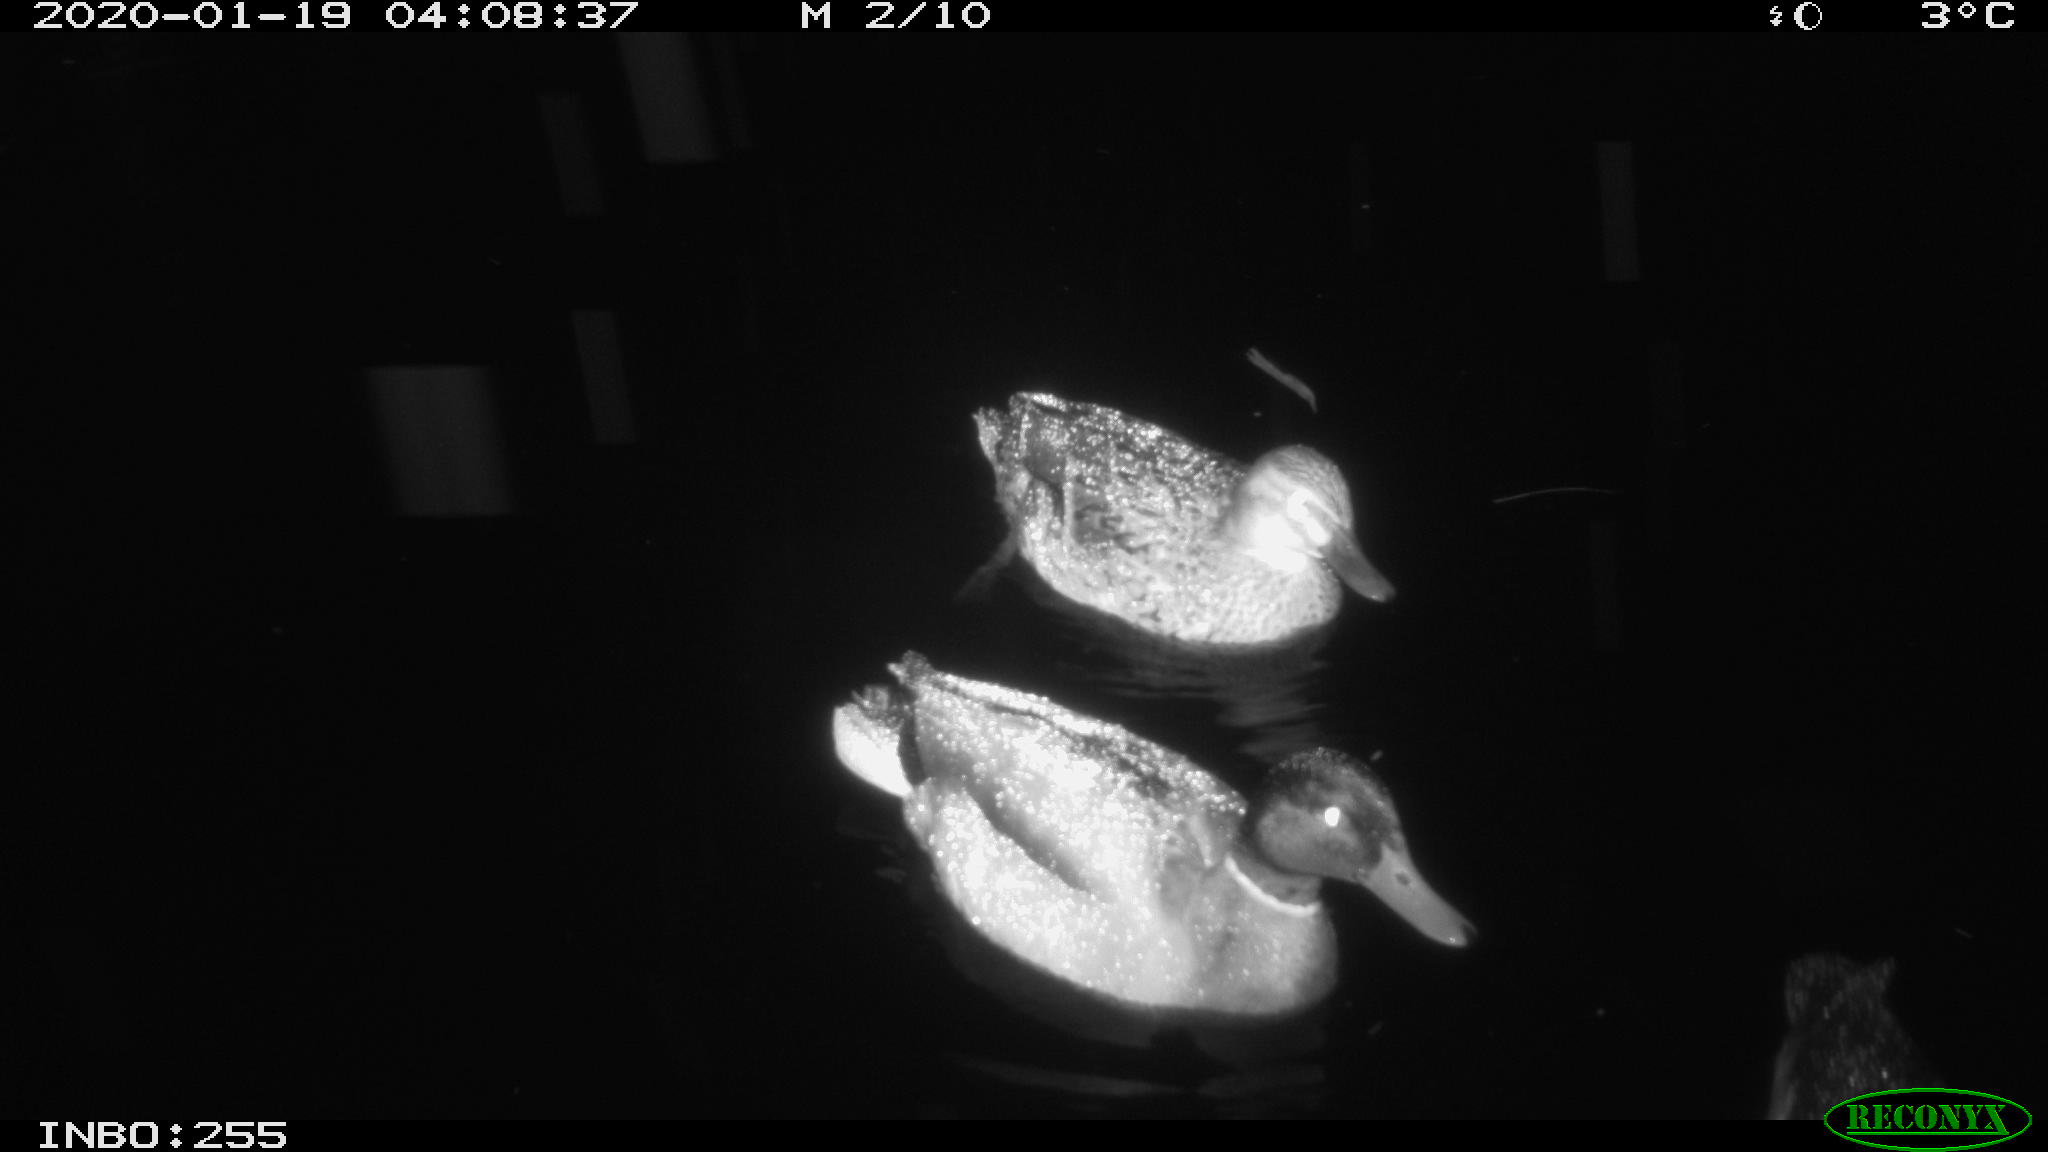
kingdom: Animalia
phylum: Chordata
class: Aves
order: Anseriformes
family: Anatidae
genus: Anas
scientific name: Anas platyrhynchos
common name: Mallard
